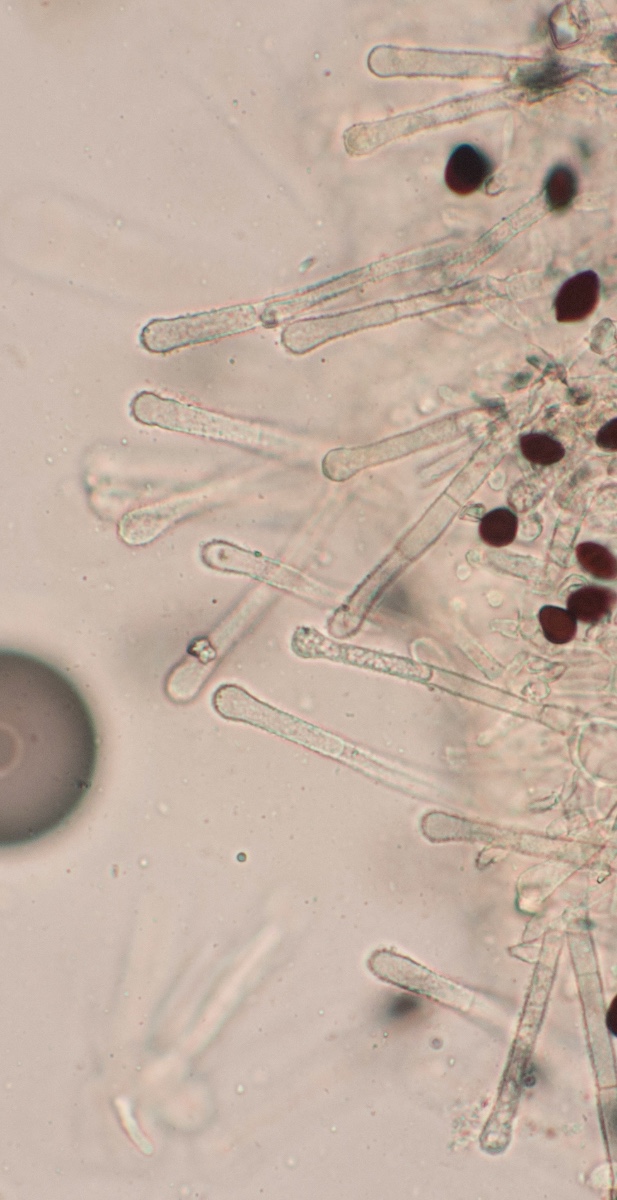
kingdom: Fungi
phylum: Ascomycota
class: Leotiomycetes
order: Helotiales
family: Lachnaceae
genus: Lachnum
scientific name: Lachnum nudipes
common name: mjødurt-frynseskive
